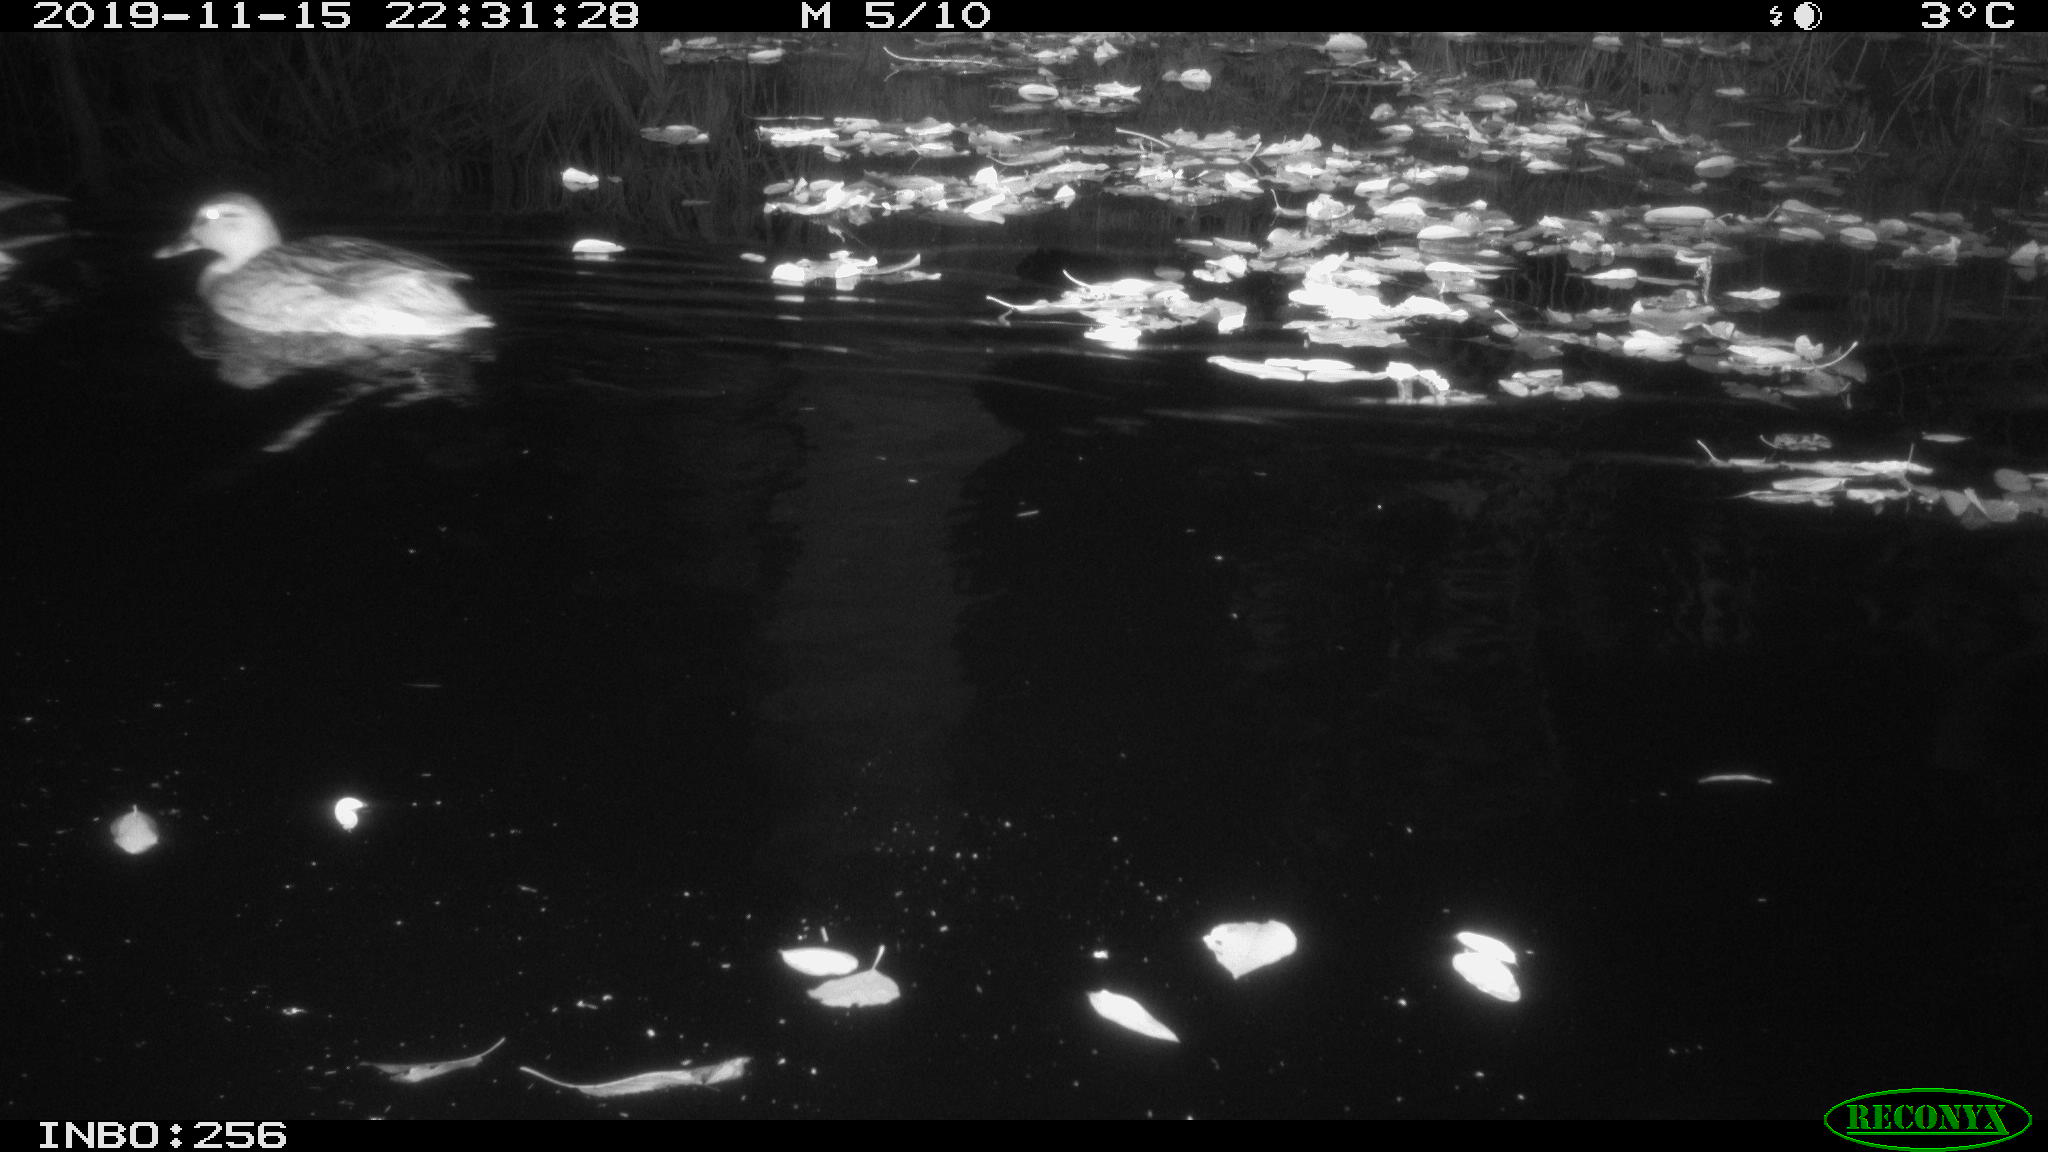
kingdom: Animalia
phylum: Chordata
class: Mammalia
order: Rodentia
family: Muridae
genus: Rattus
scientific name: Rattus norvegicus
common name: Brown rat
